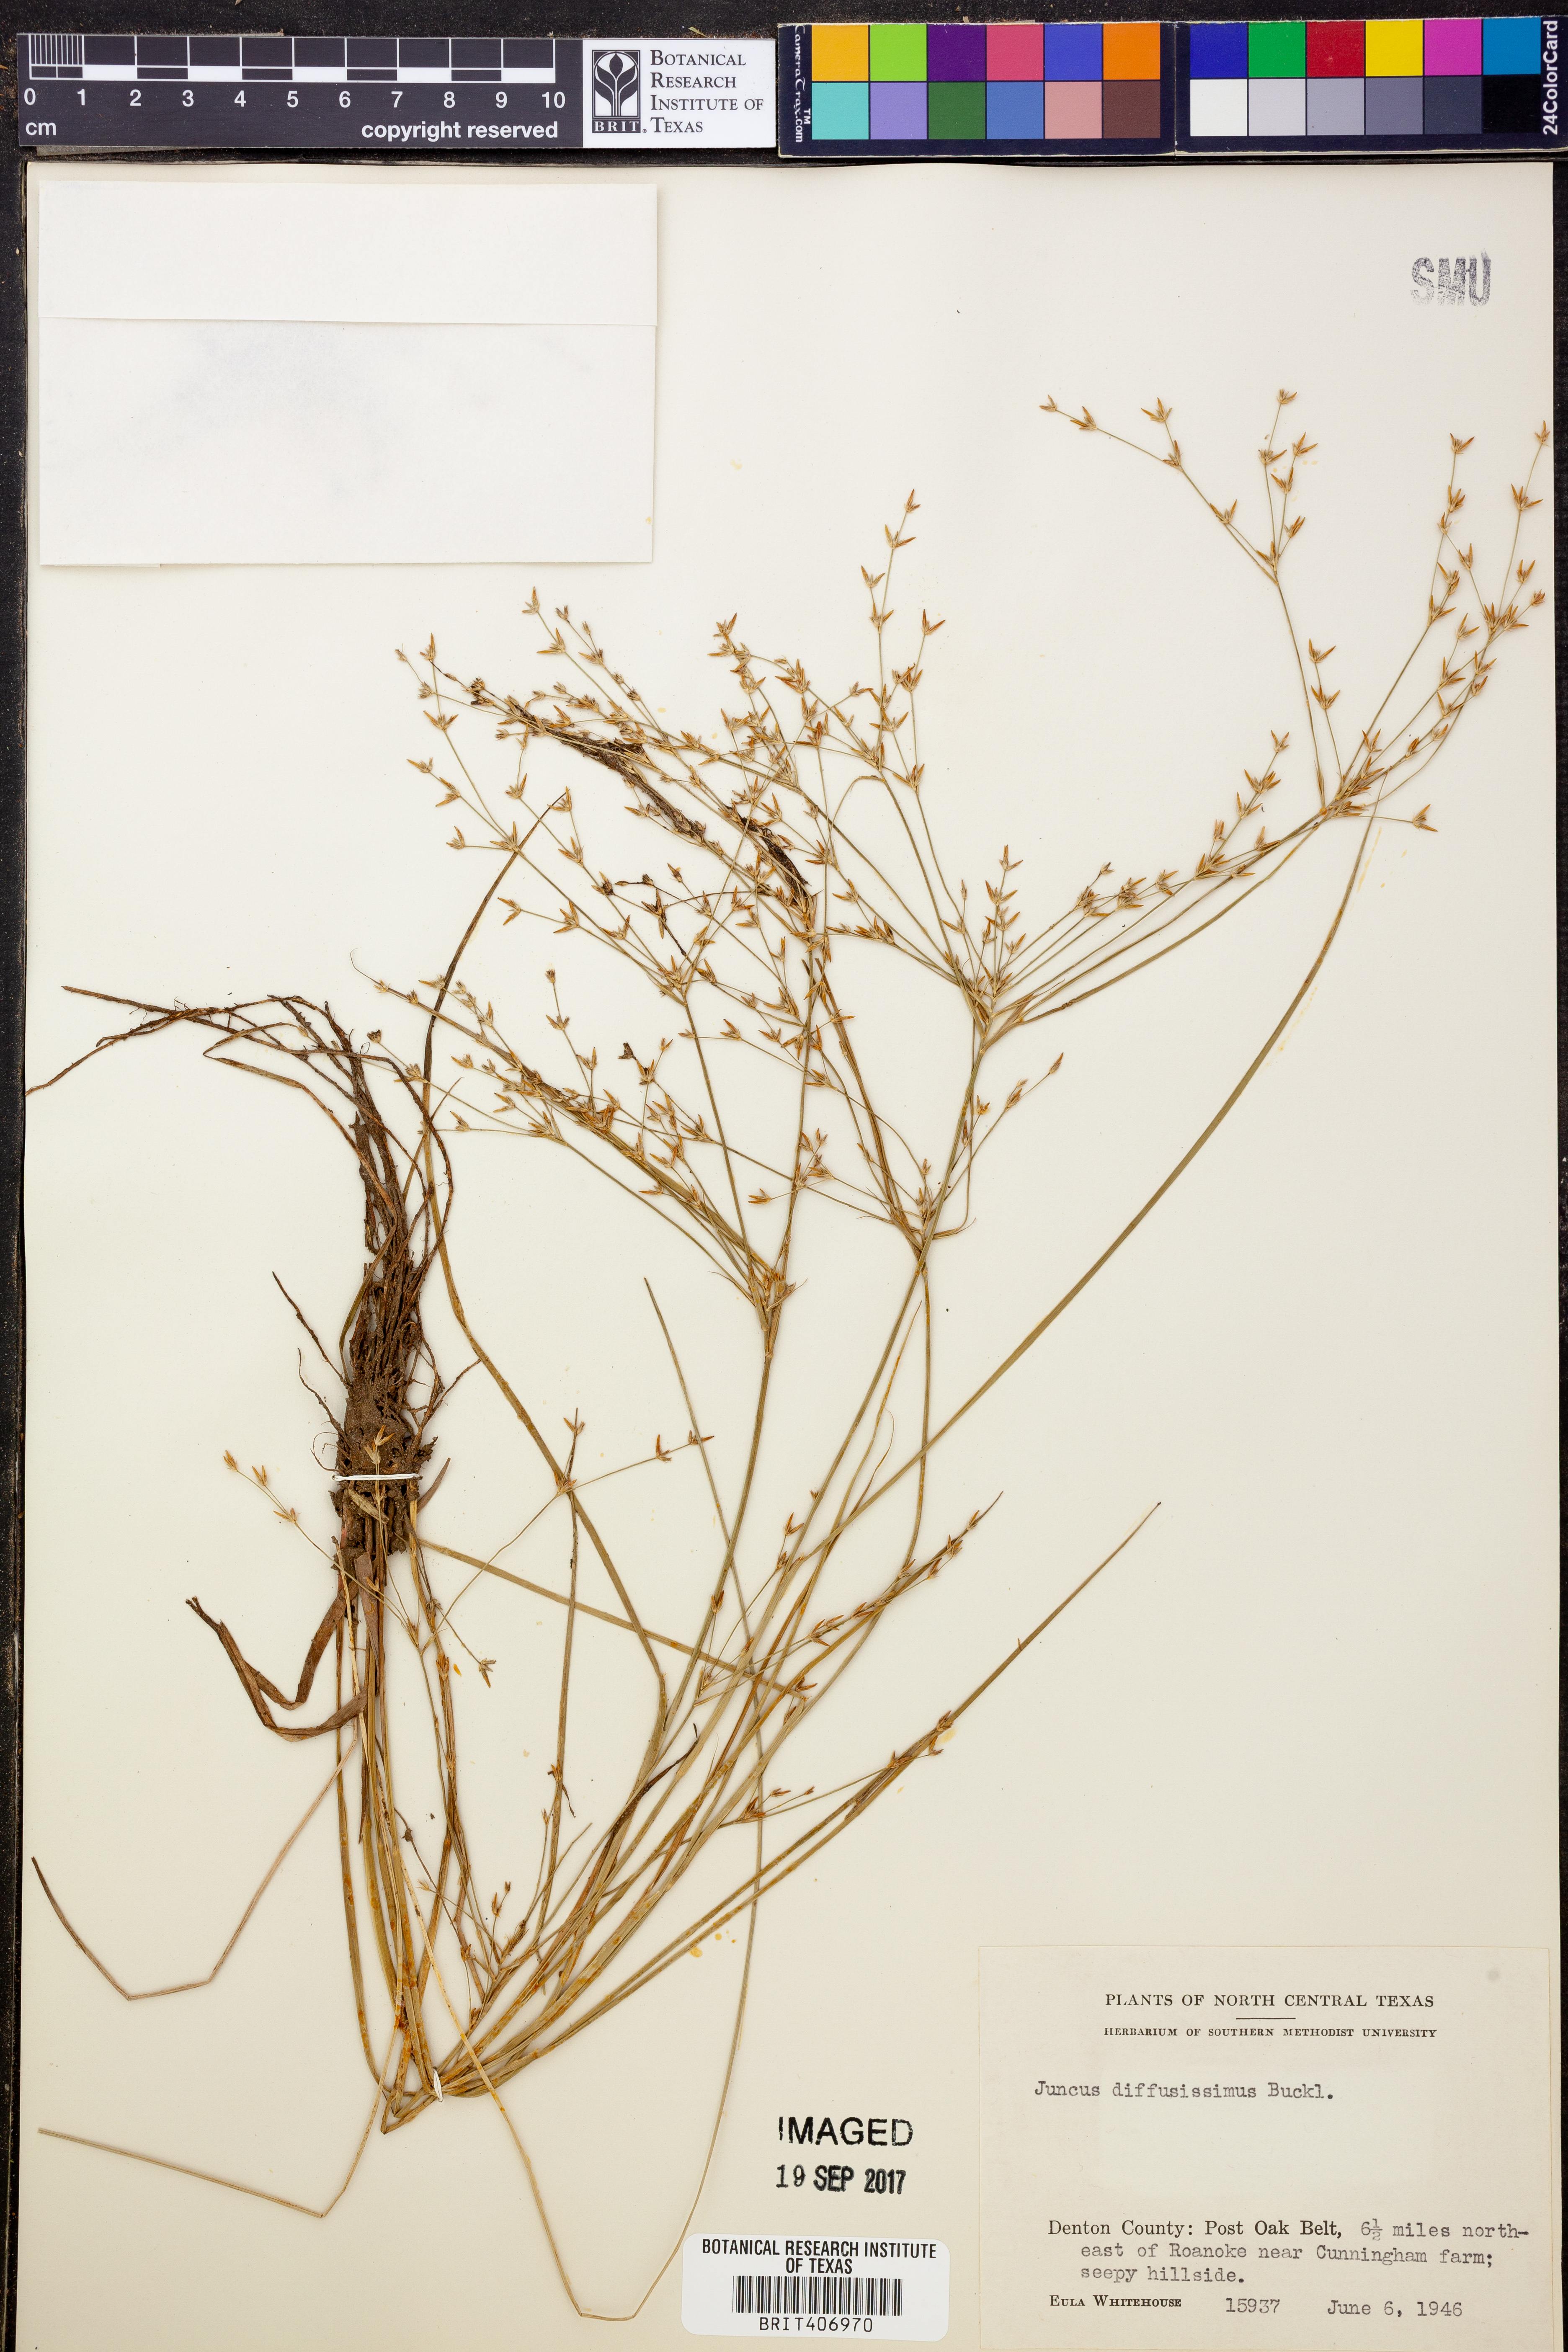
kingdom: Plantae
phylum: Tracheophyta
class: Liliopsida
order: Poales
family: Juncaceae
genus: Juncus
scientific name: Juncus diffusissimus
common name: Slimpod rush
